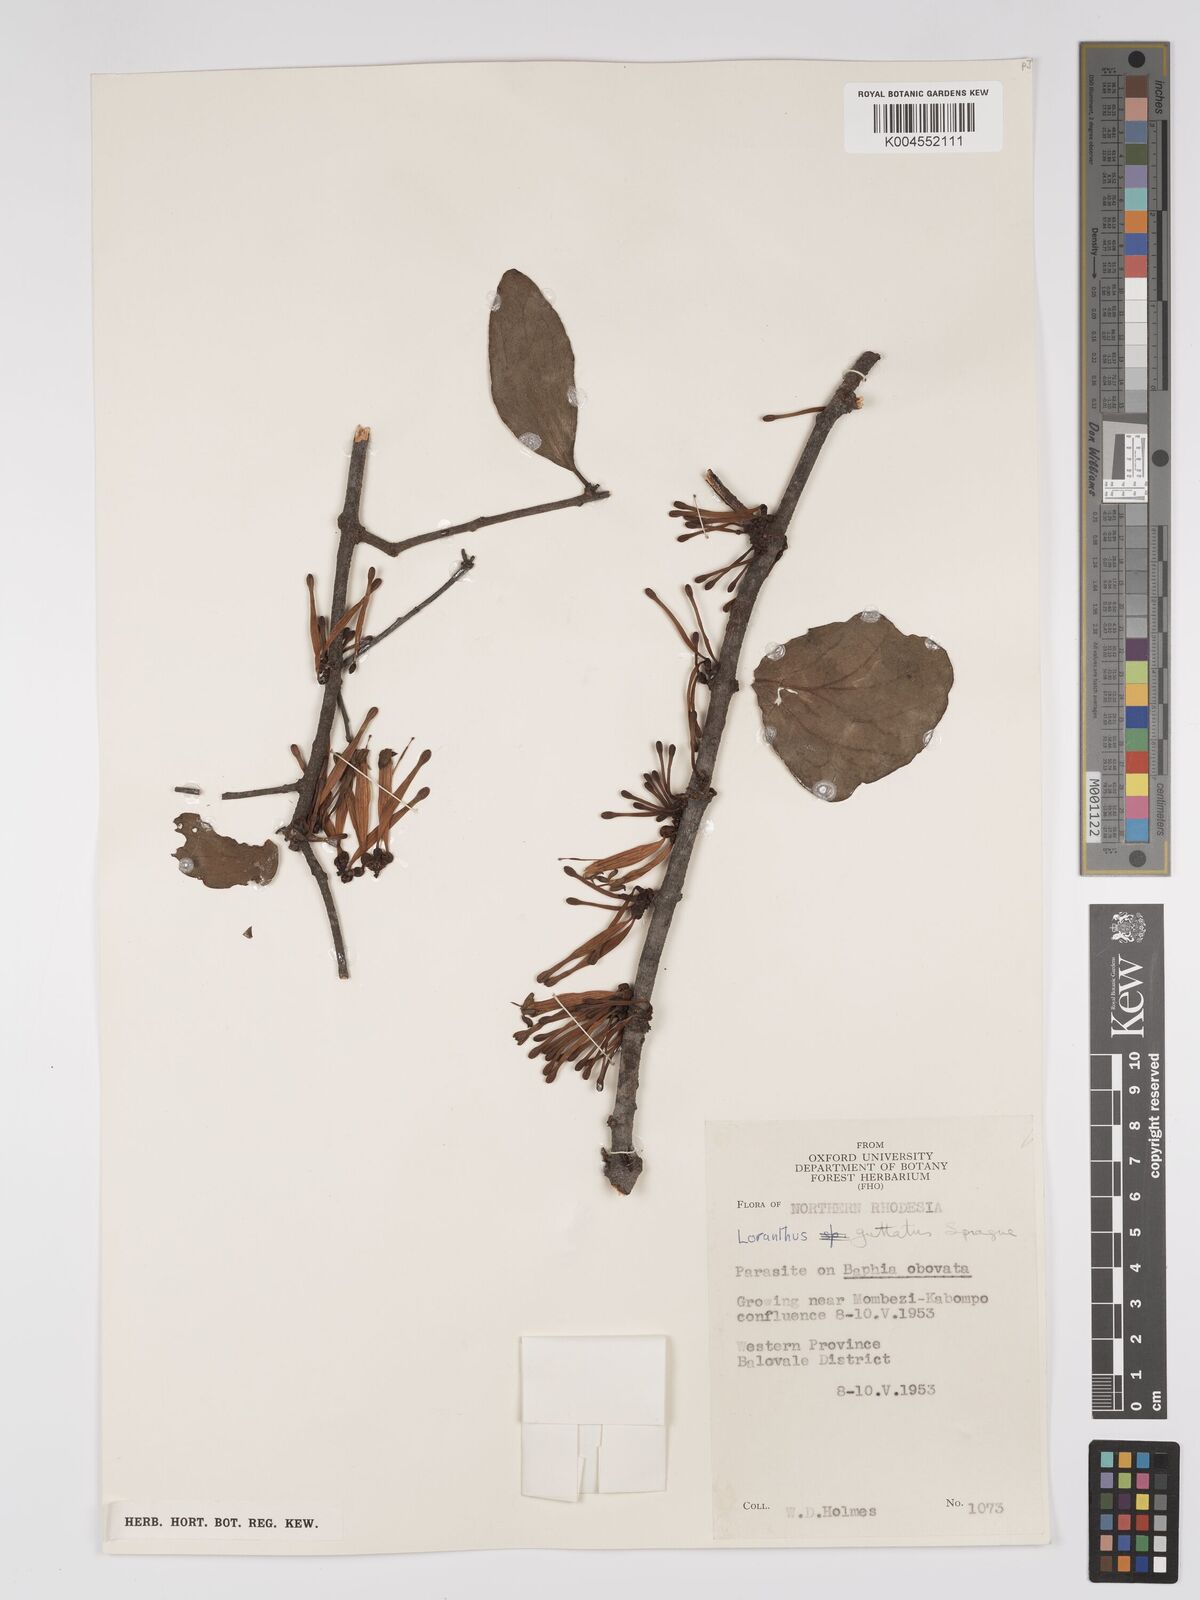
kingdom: Plantae
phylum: Tracheophyta
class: Magnoliopsida
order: Santalales
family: Loranthaceae
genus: Tapinanthus
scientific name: Tapinanthus forbesii
